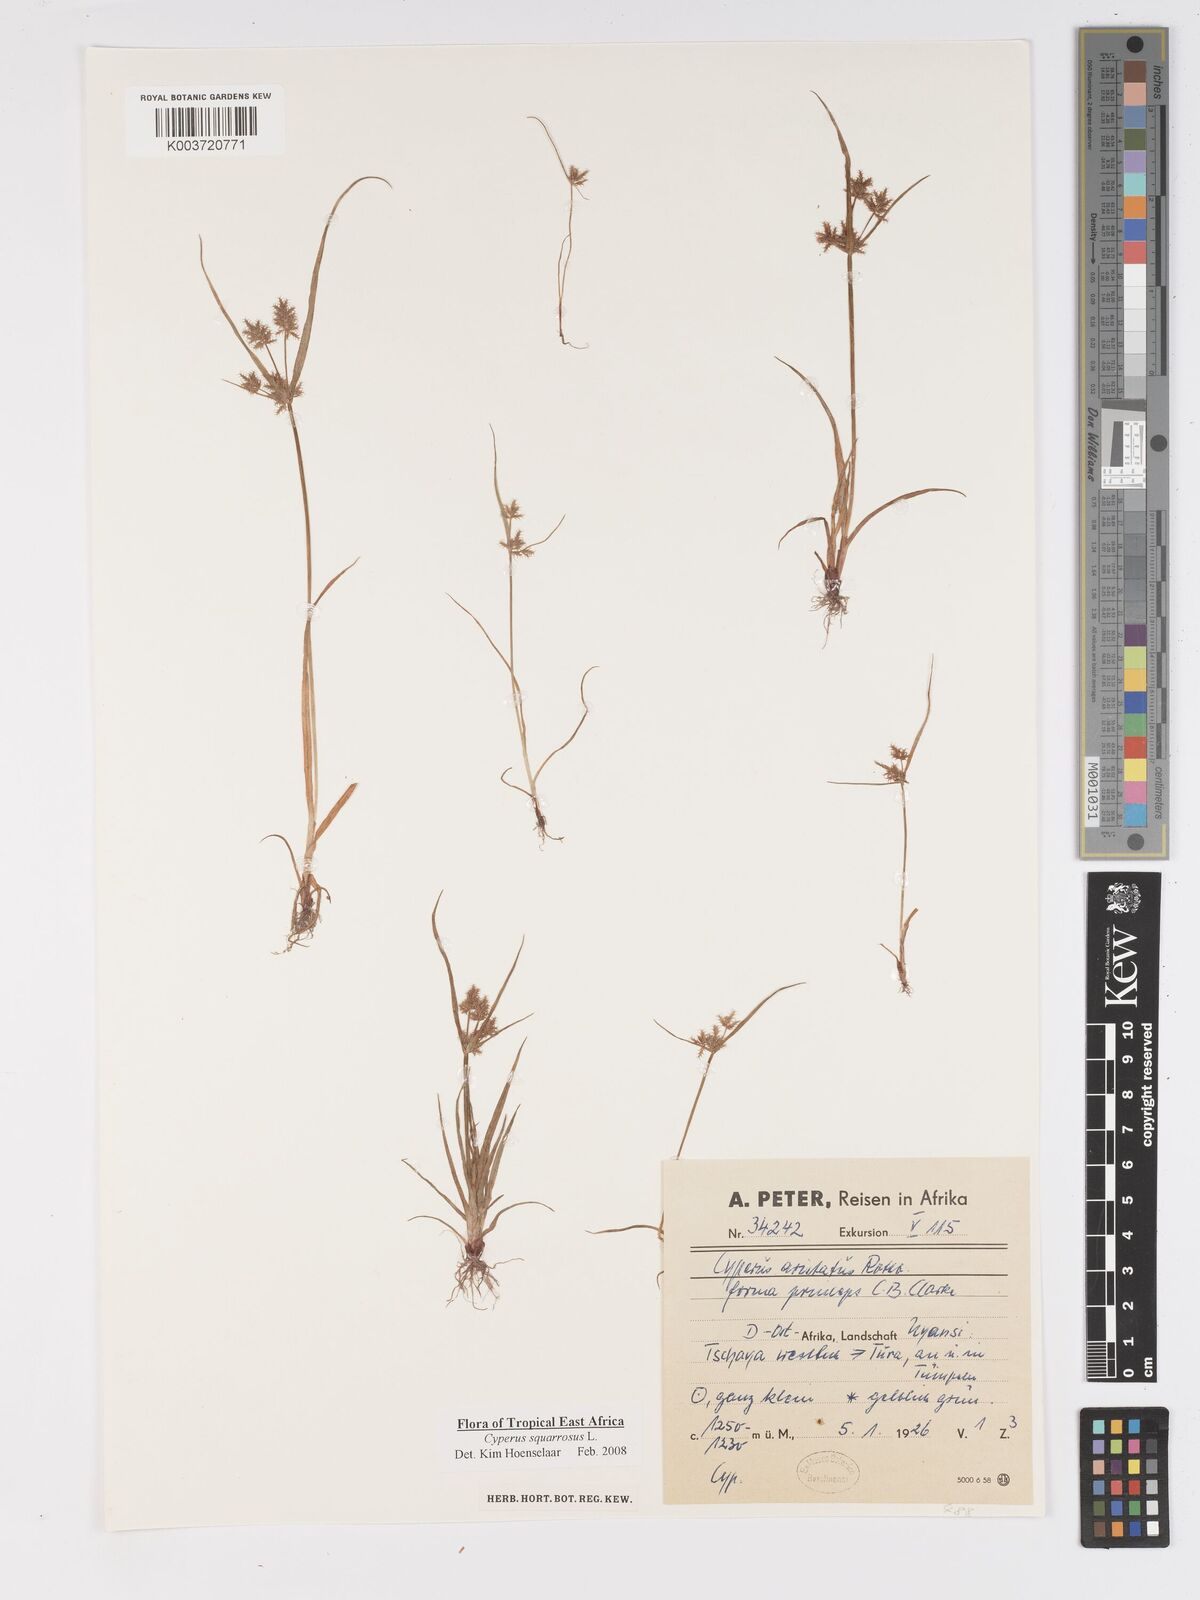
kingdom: Plantae
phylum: Tracheophyta
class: Liliopsida
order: Poales
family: Cyperaceae
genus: Cyperus
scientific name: Cyperus squarrosus
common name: Awned cyperus
